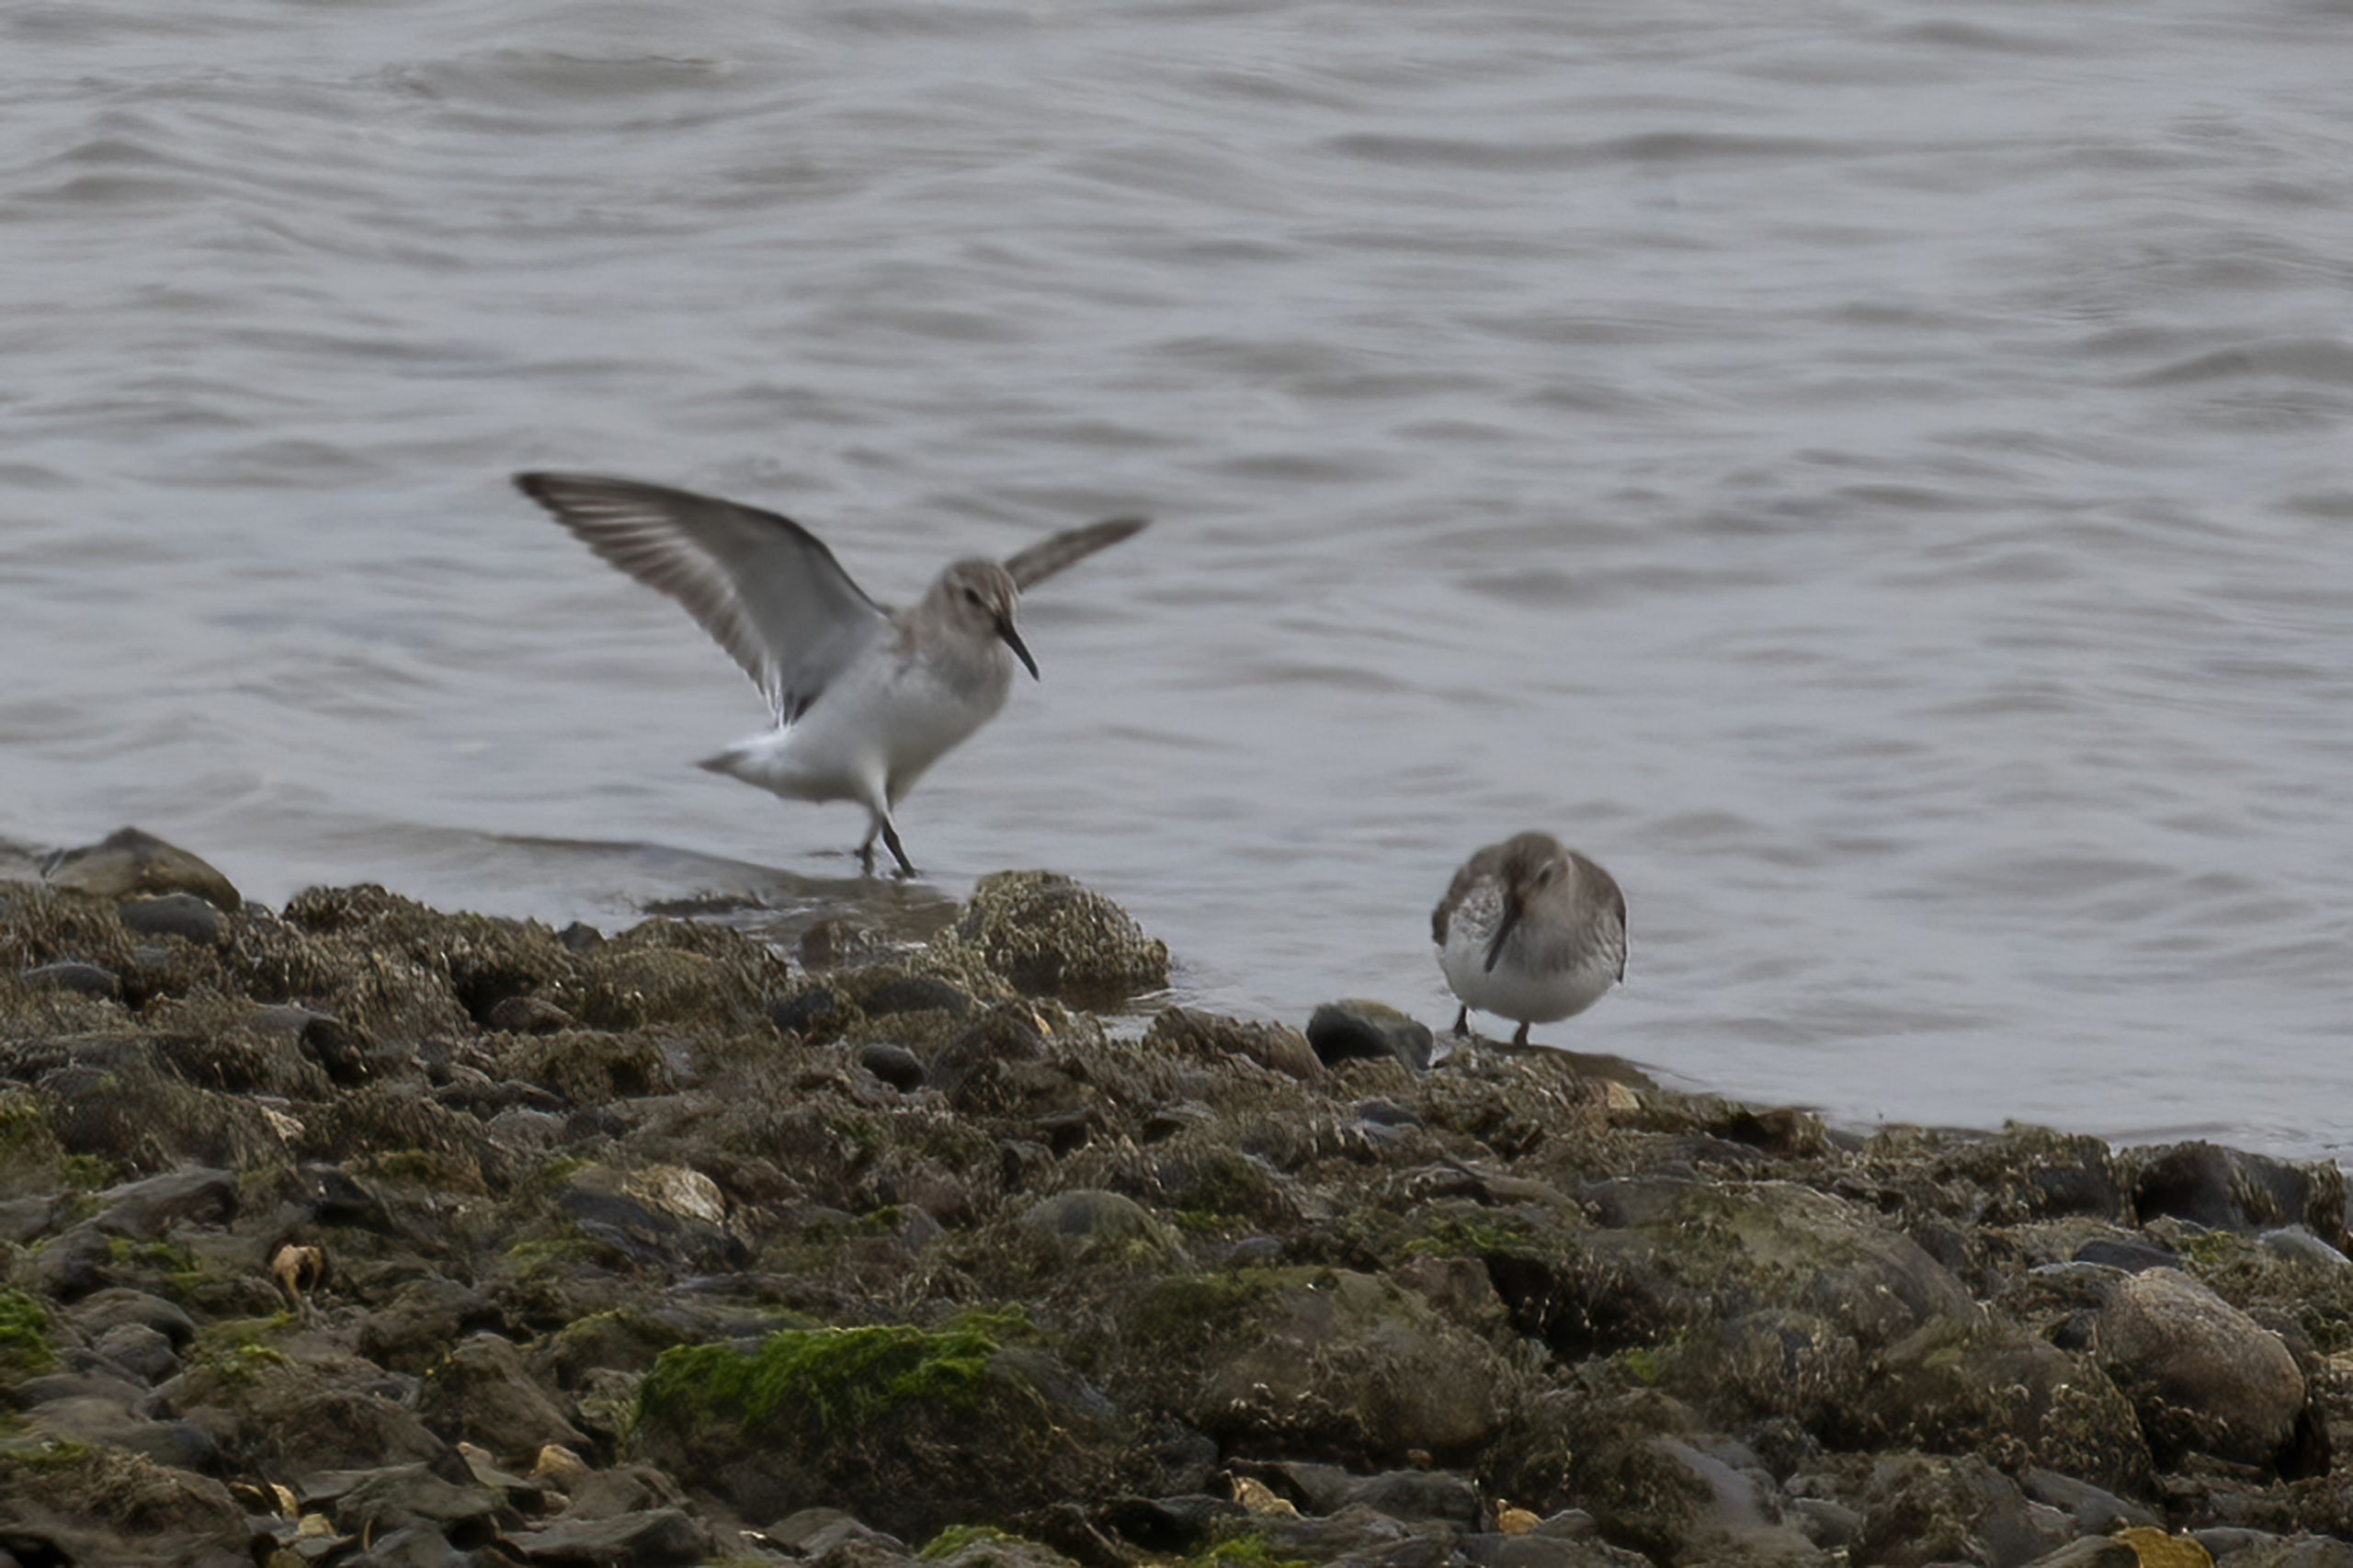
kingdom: Animalia
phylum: Chordata
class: Aves
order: Charadriiformes
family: Scolopacidae
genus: Calidris
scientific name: Calidris alpina
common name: Almindelig ryle
